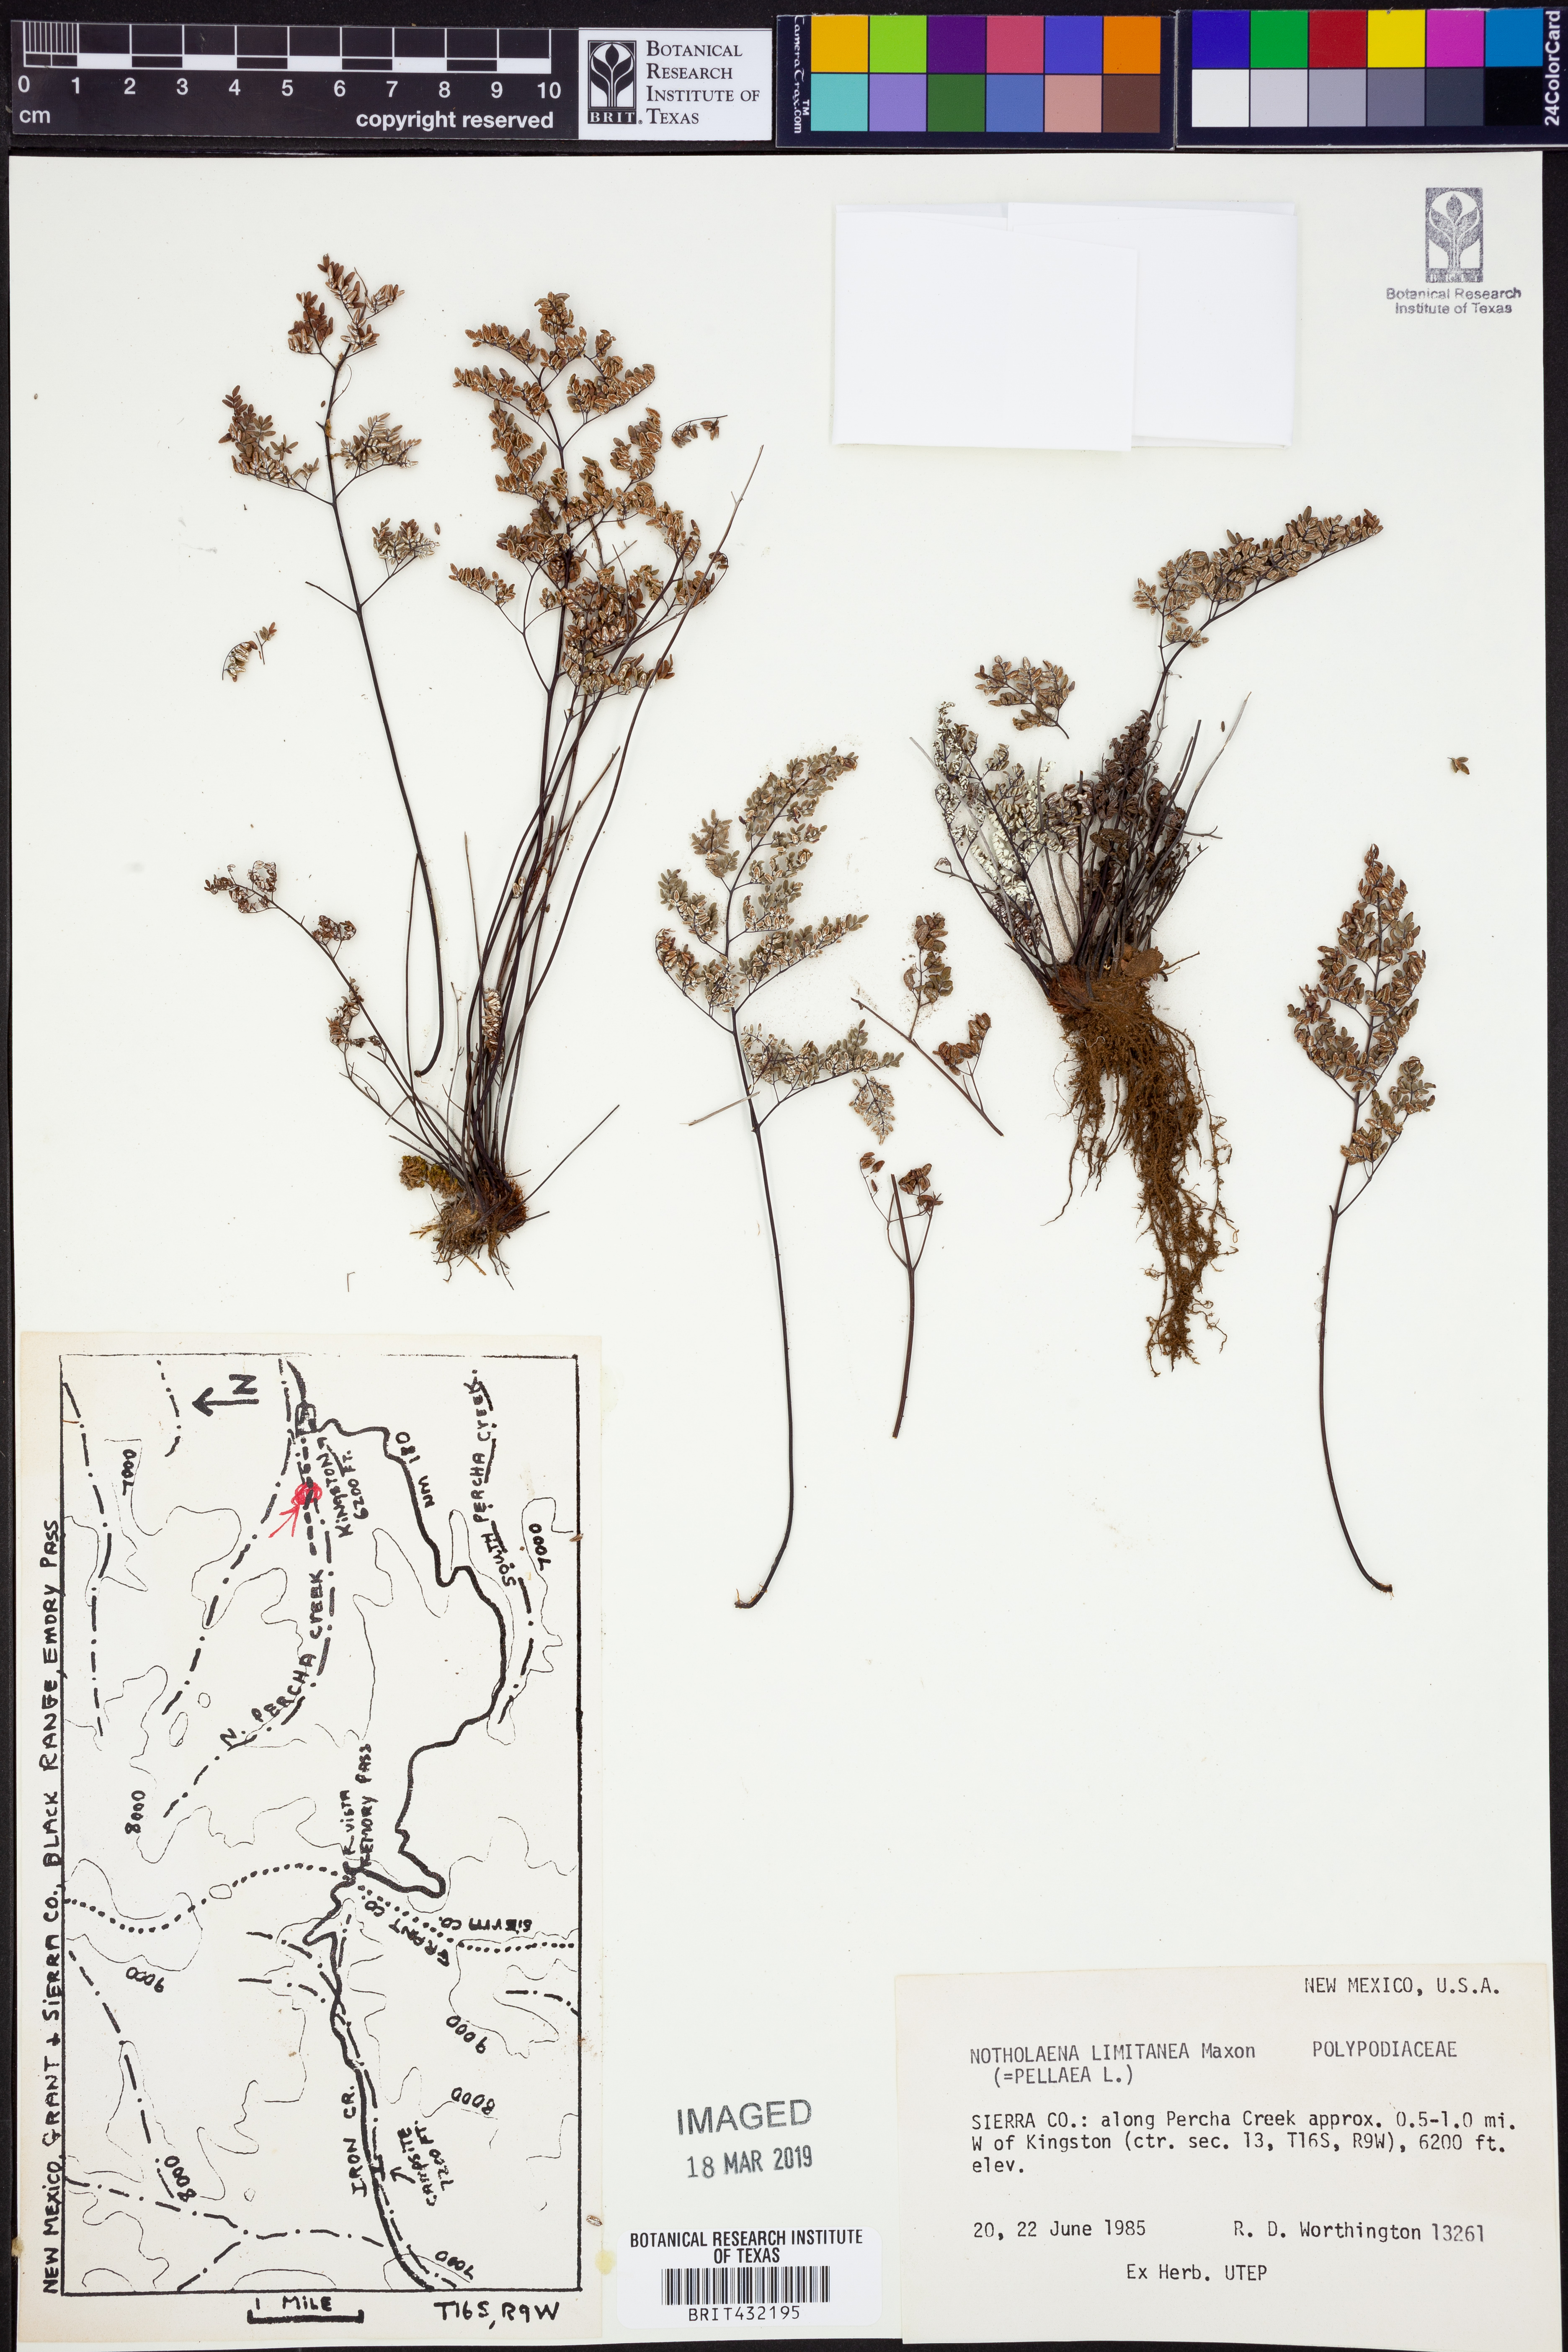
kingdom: Plantae
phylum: Tracheophyta
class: Polypodiopsida
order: Polypodiales
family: Pteridaceae
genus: Argyrochosma
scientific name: Argyrochosma limitanea
